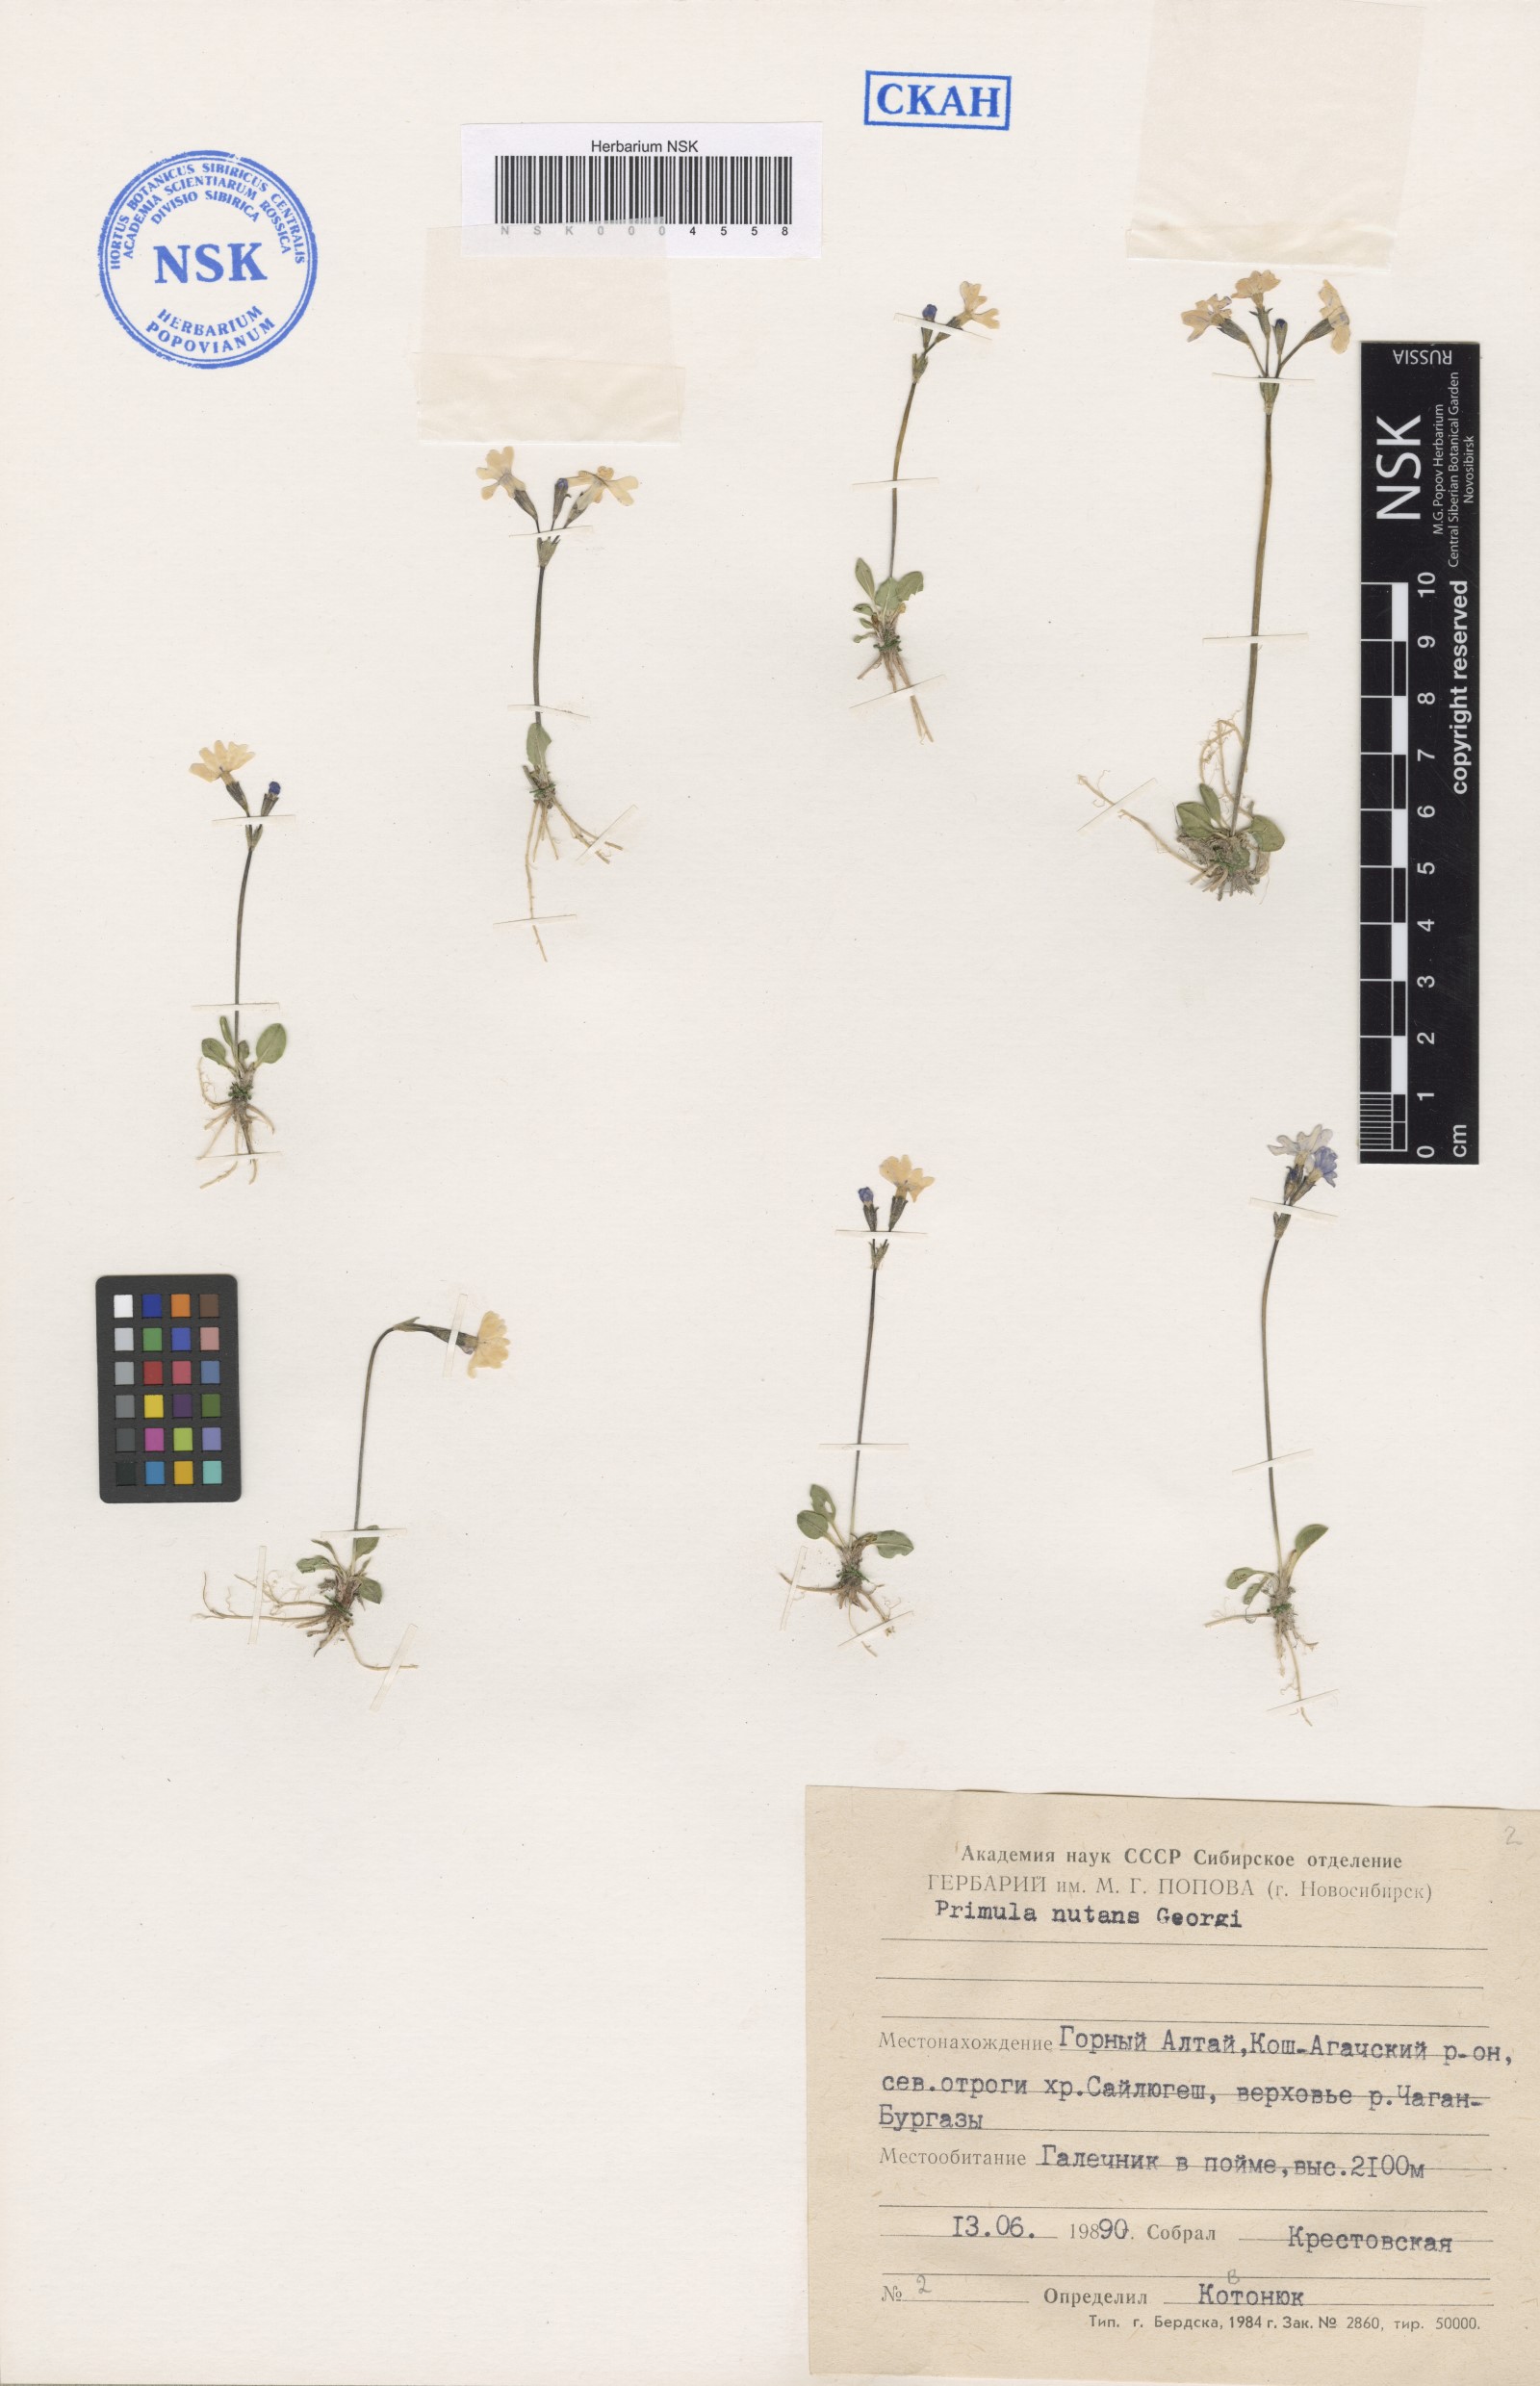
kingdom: Plantae
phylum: Tracheophyta
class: Magnoliopsida
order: Ericales
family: Primulaceae
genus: Primula
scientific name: Primula nutans
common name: Siberian primrose
